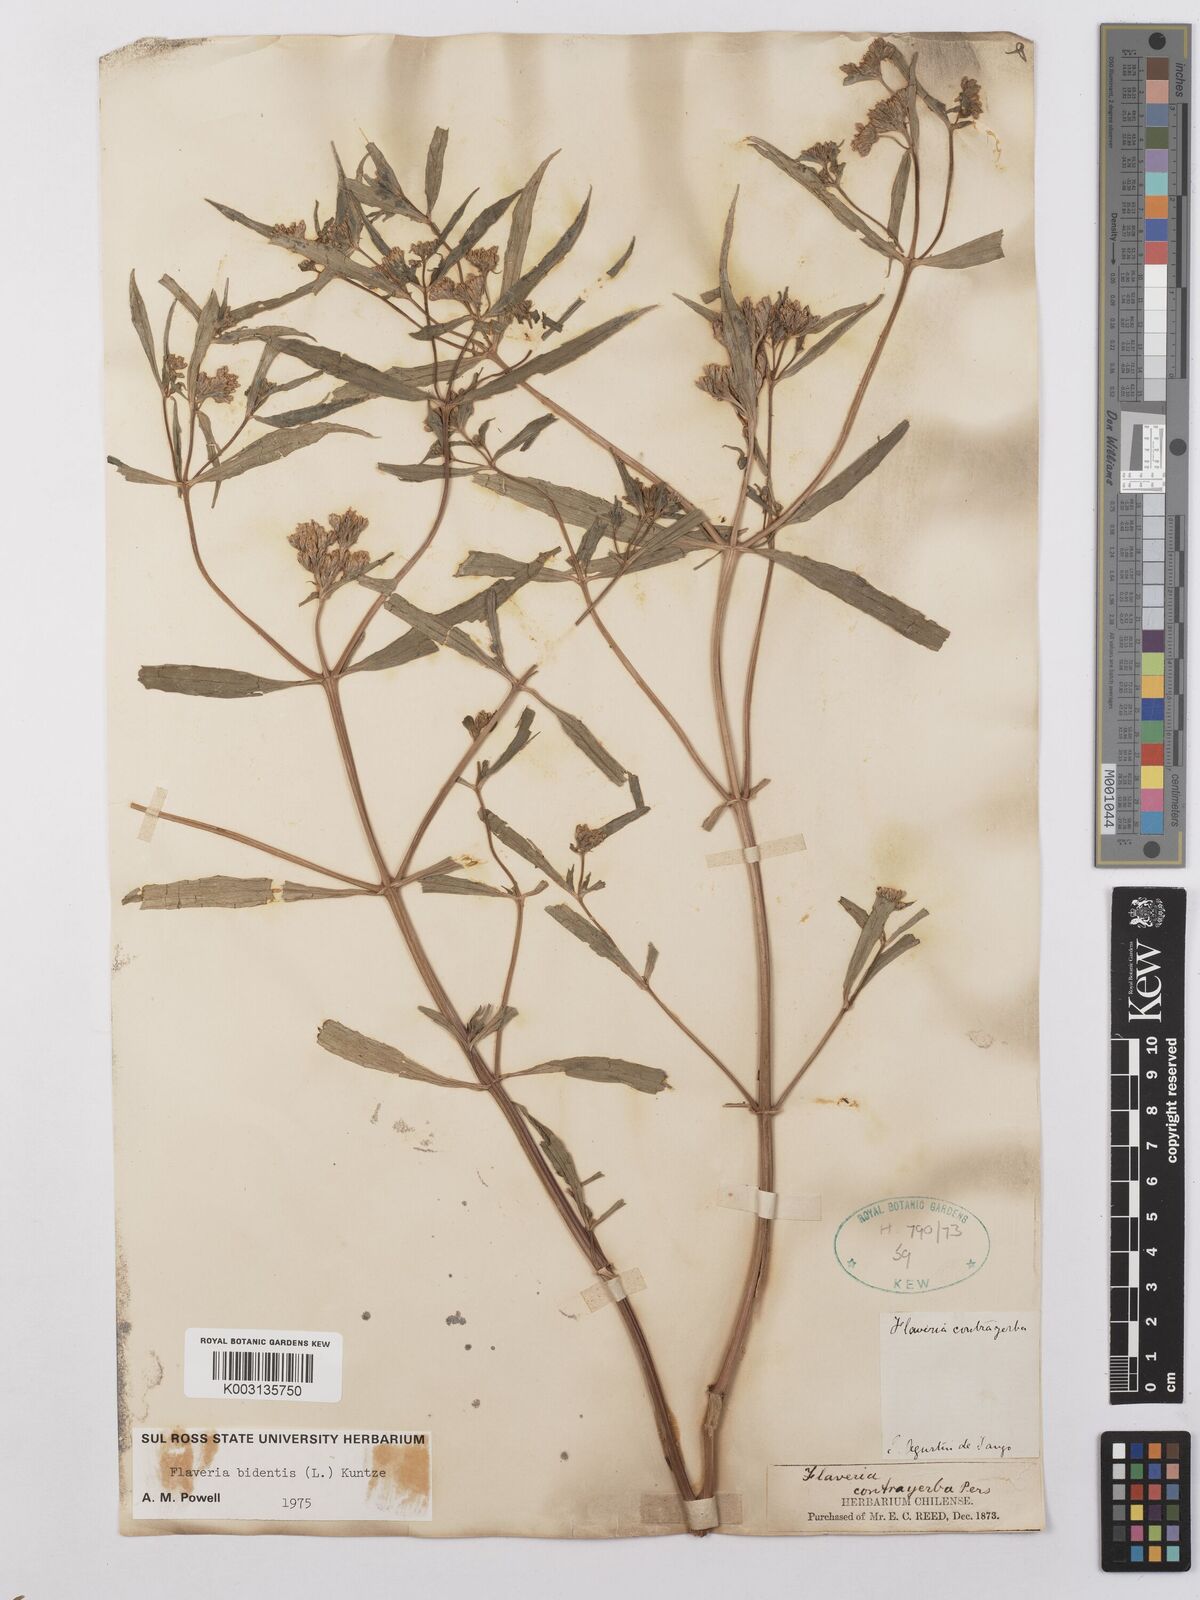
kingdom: Plantae
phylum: Tracheophyta
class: Magnoliopsida
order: Asterales
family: Asteraceae
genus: Flaveria
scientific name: Flaveria bidentis
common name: Coastal plain yellowtops
